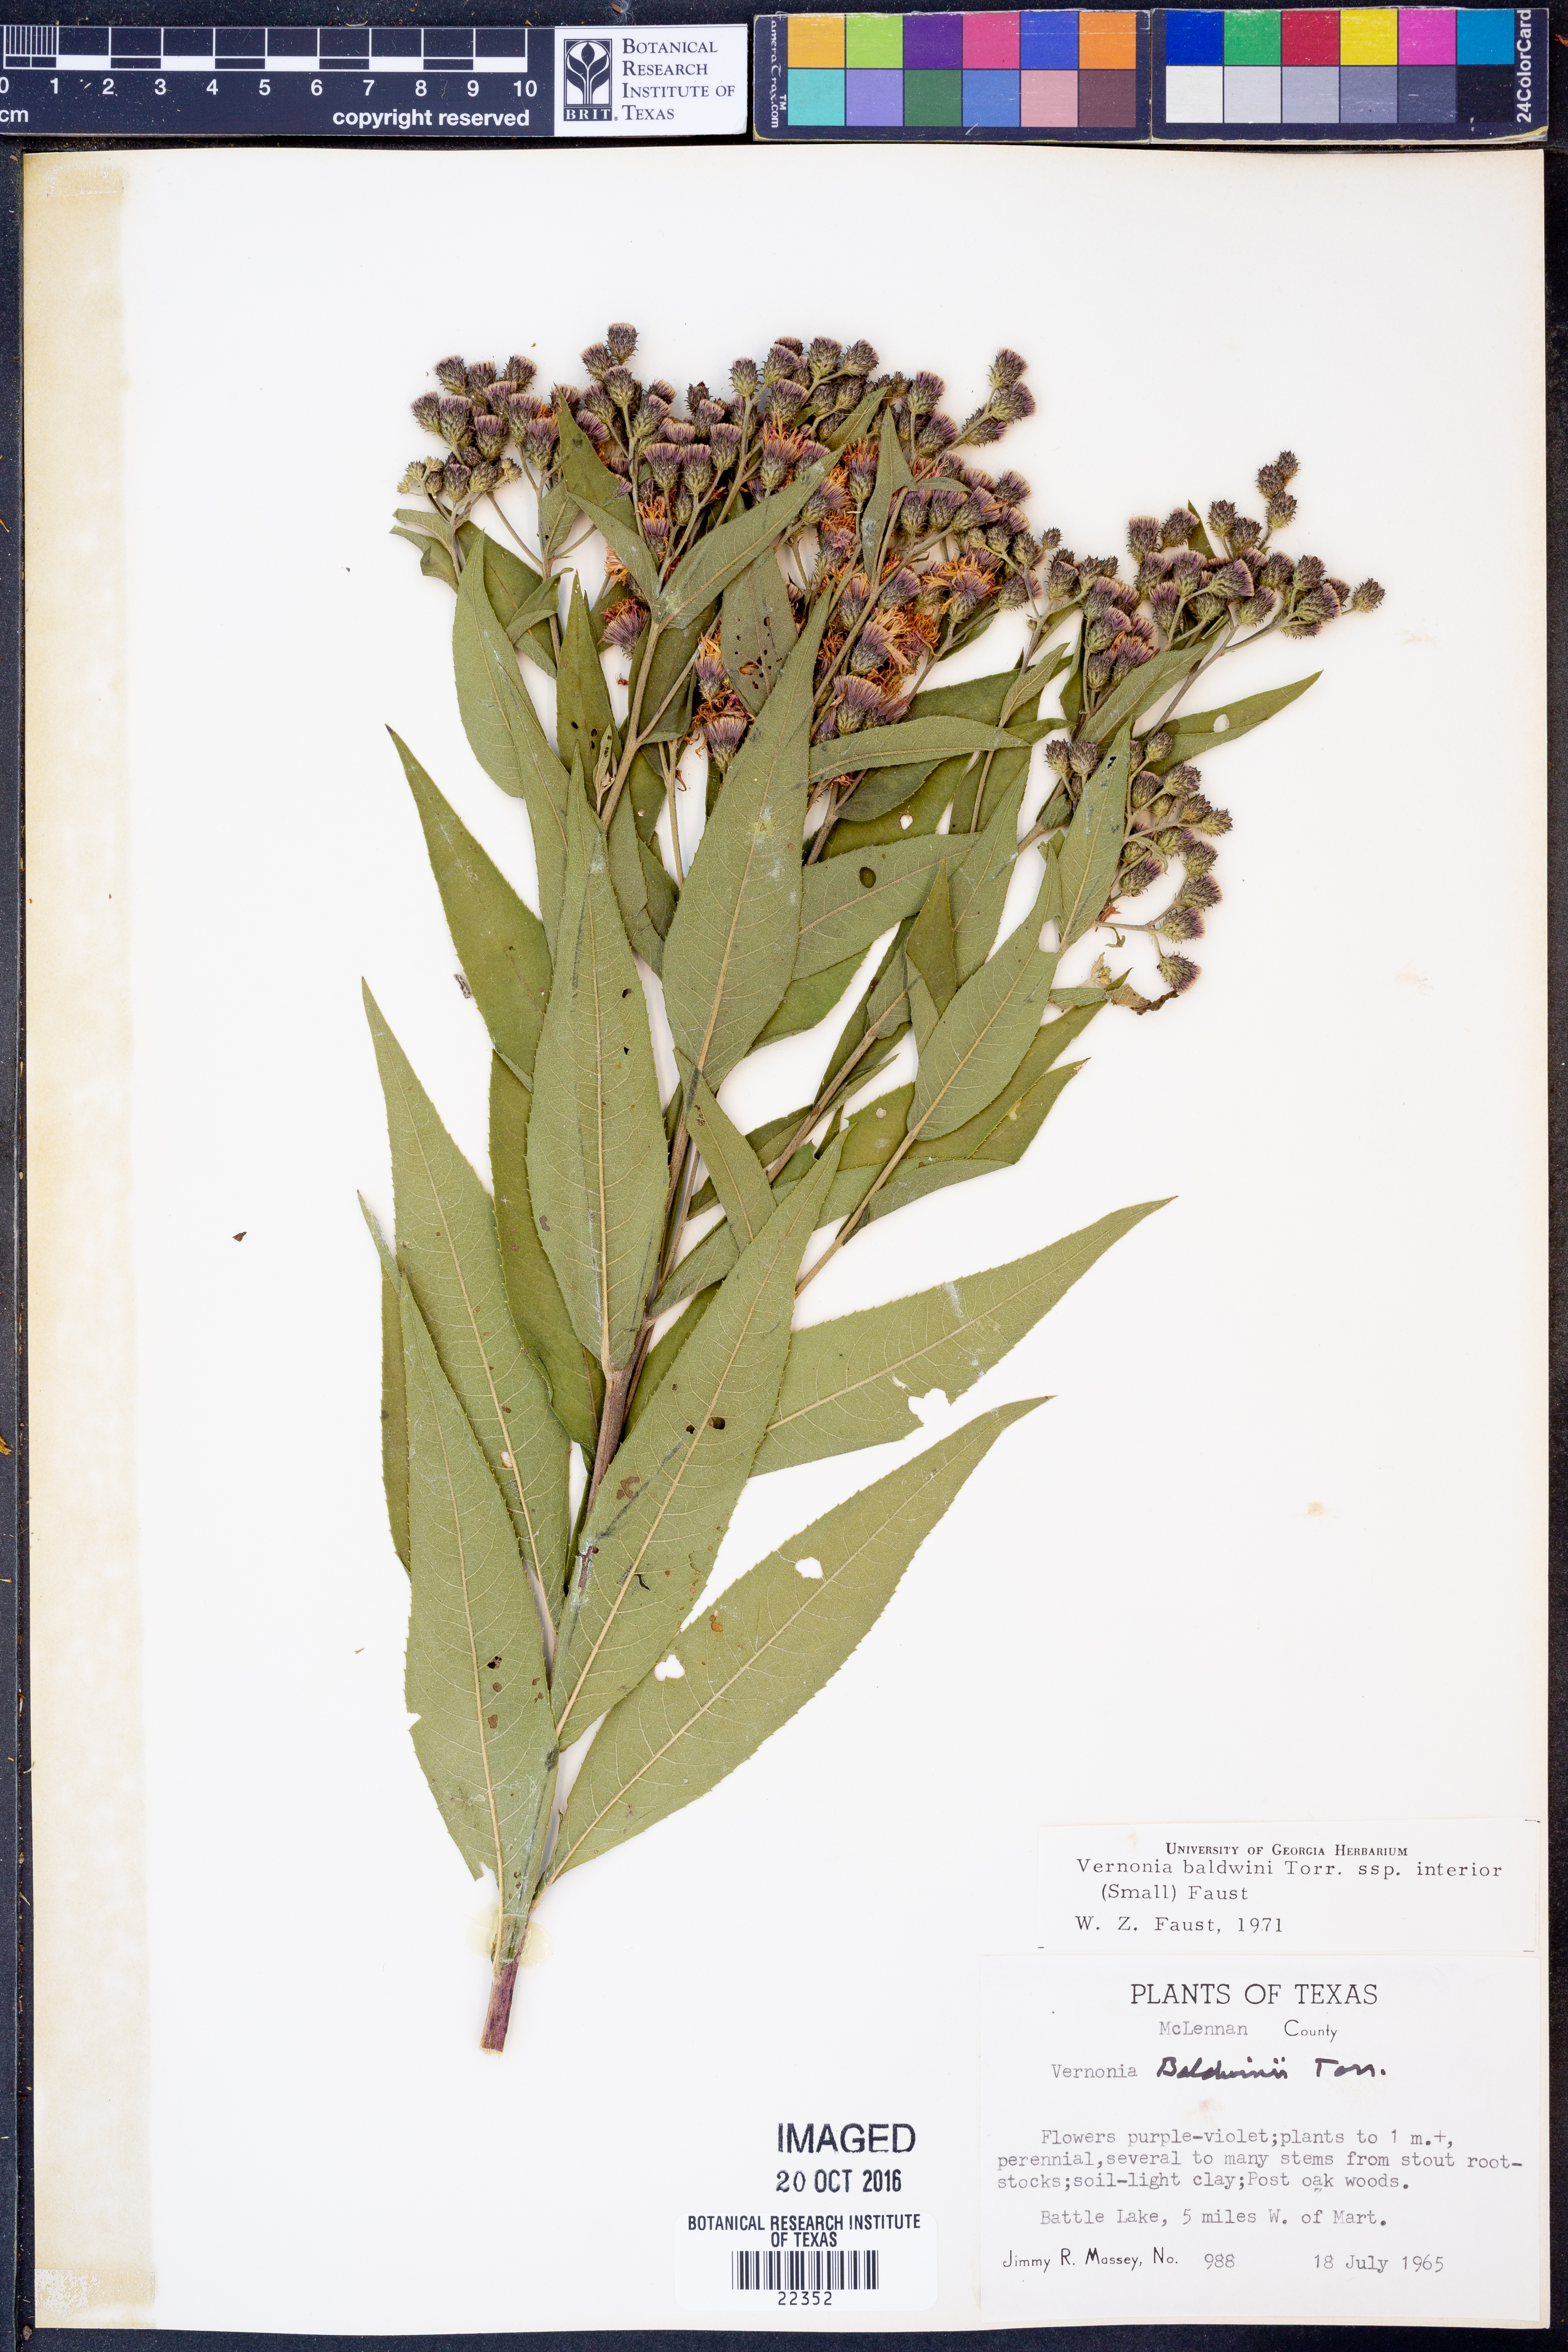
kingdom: Plantae
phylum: Tracheophyta
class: Magnoliopsida
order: Asterales
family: Asteraceae
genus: Vernonia
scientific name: Vernonia baldwinii
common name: Western ironweed
